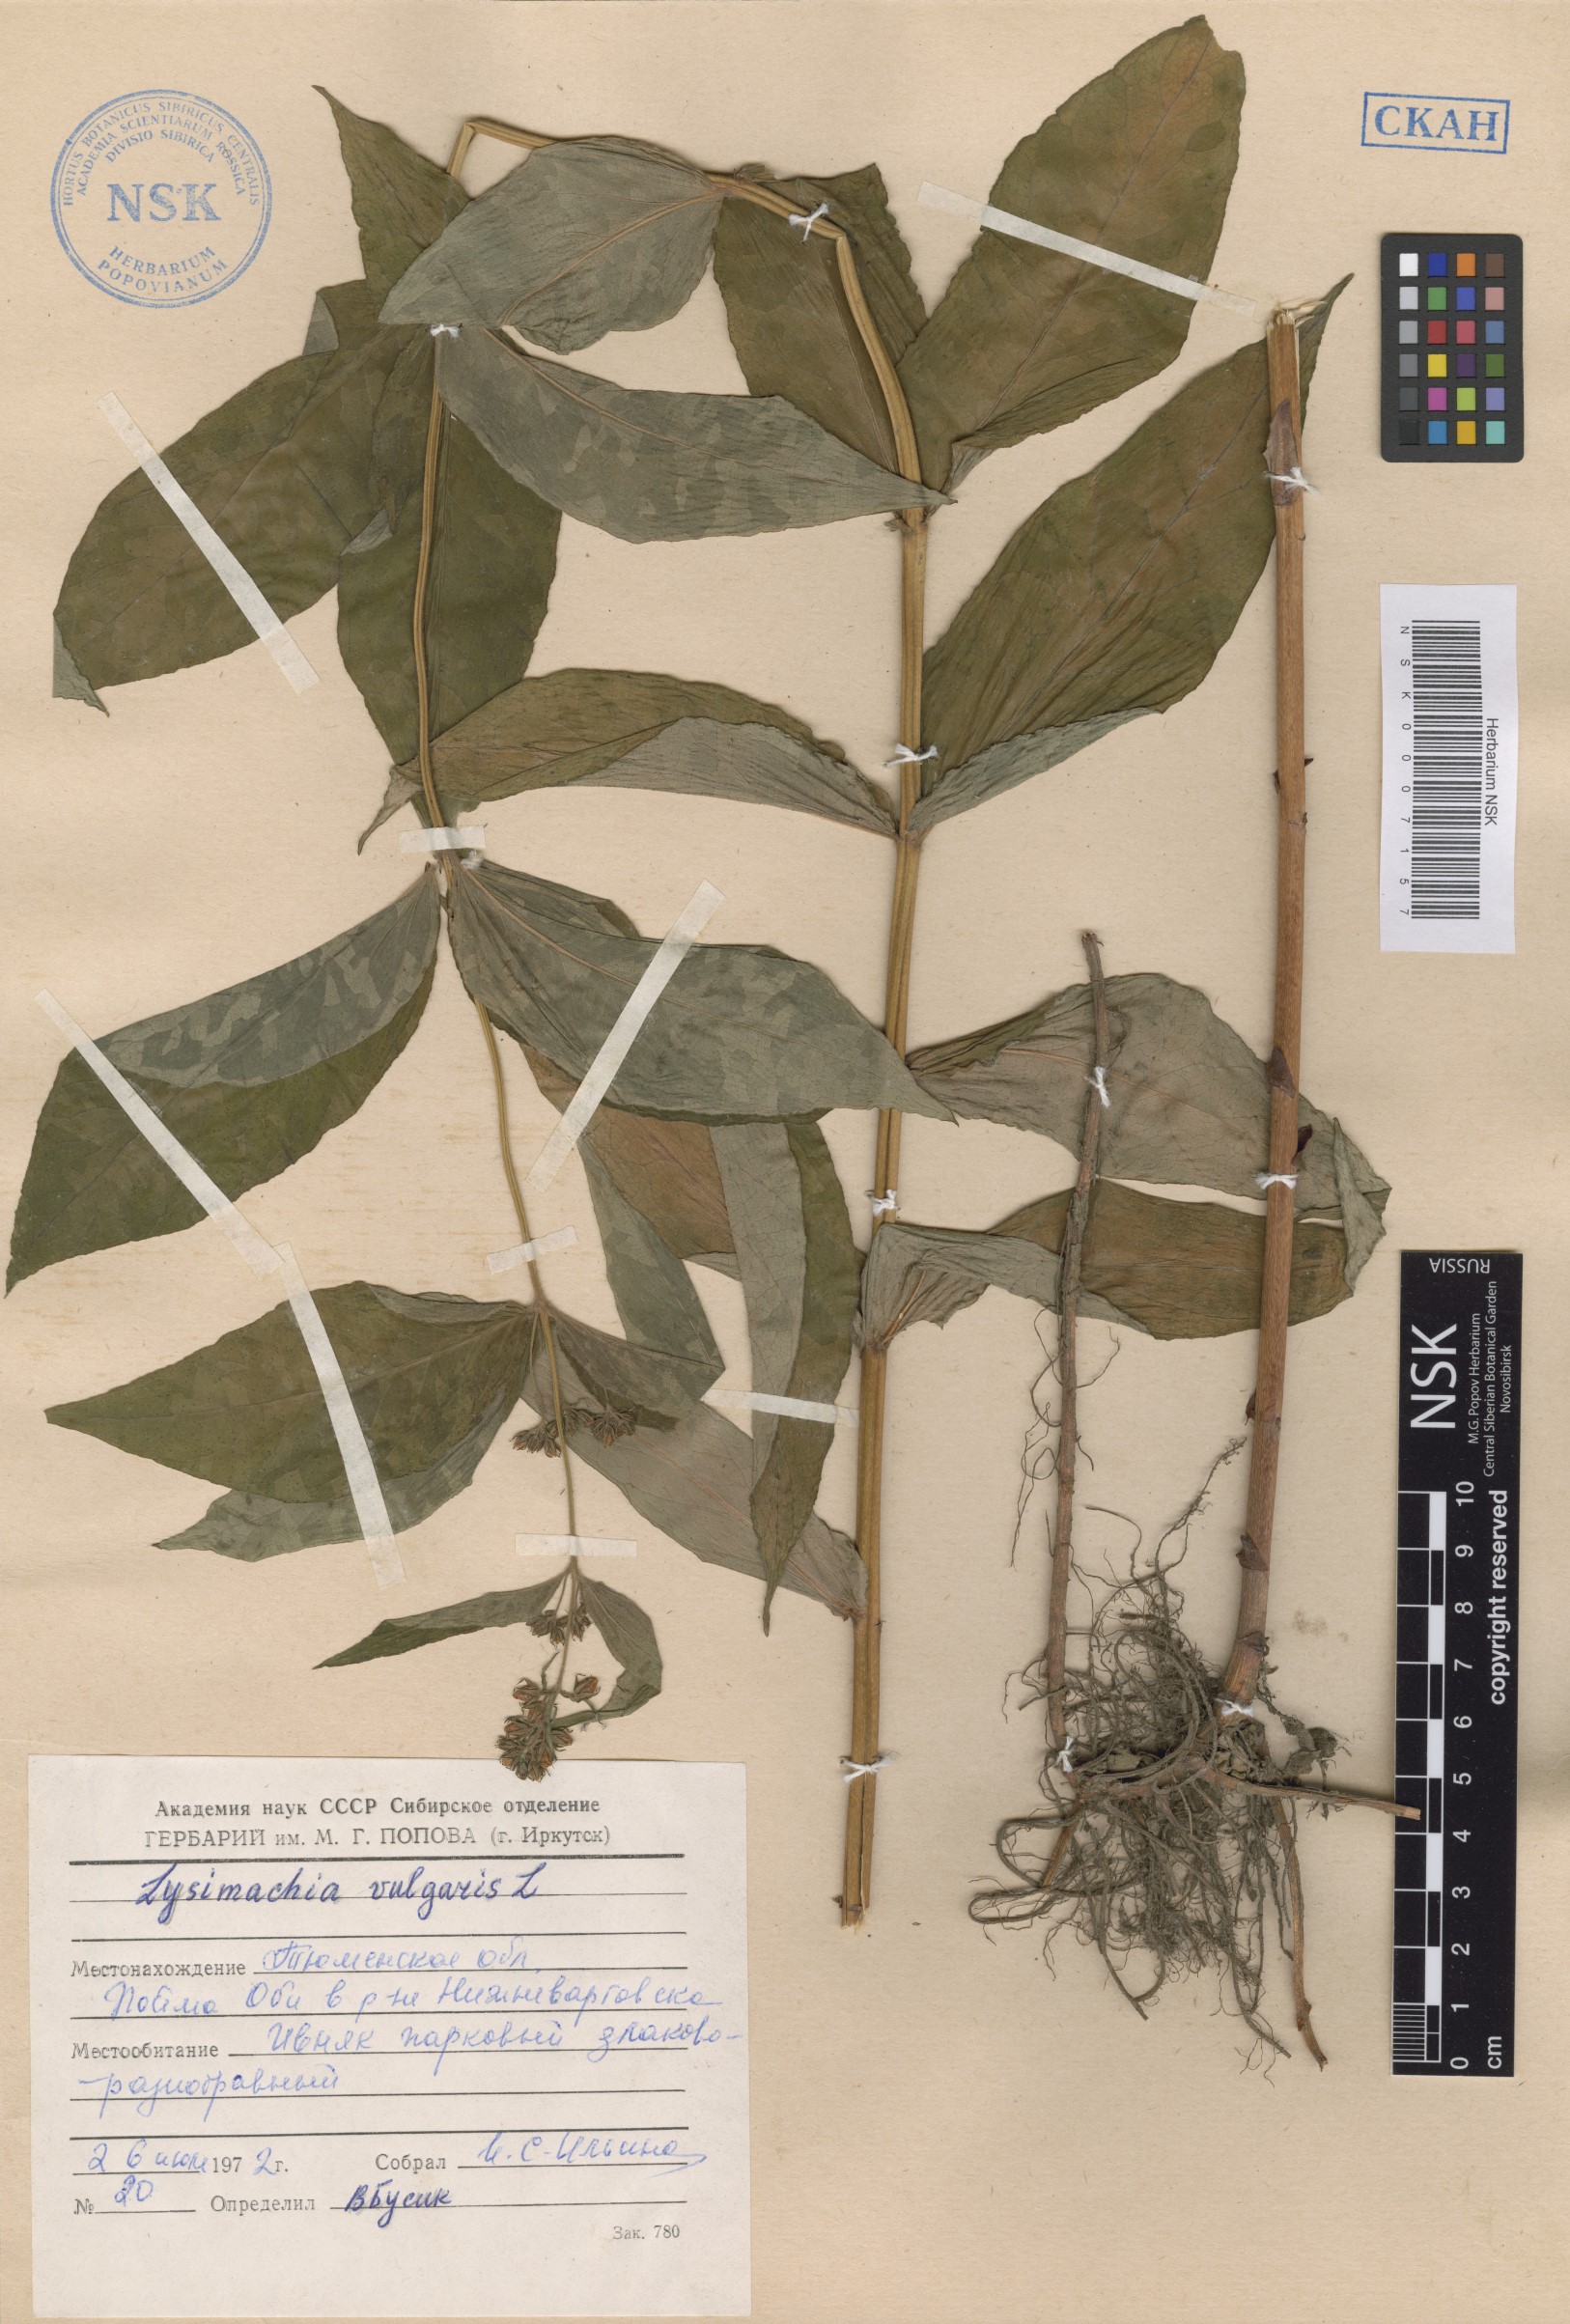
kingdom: Plantae
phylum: Tracheophyta
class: Magnoliopsida
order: Ericales
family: Primulaceae
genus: Lysimachia
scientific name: Lysimachia vulgaris
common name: Yellow loosestrife
